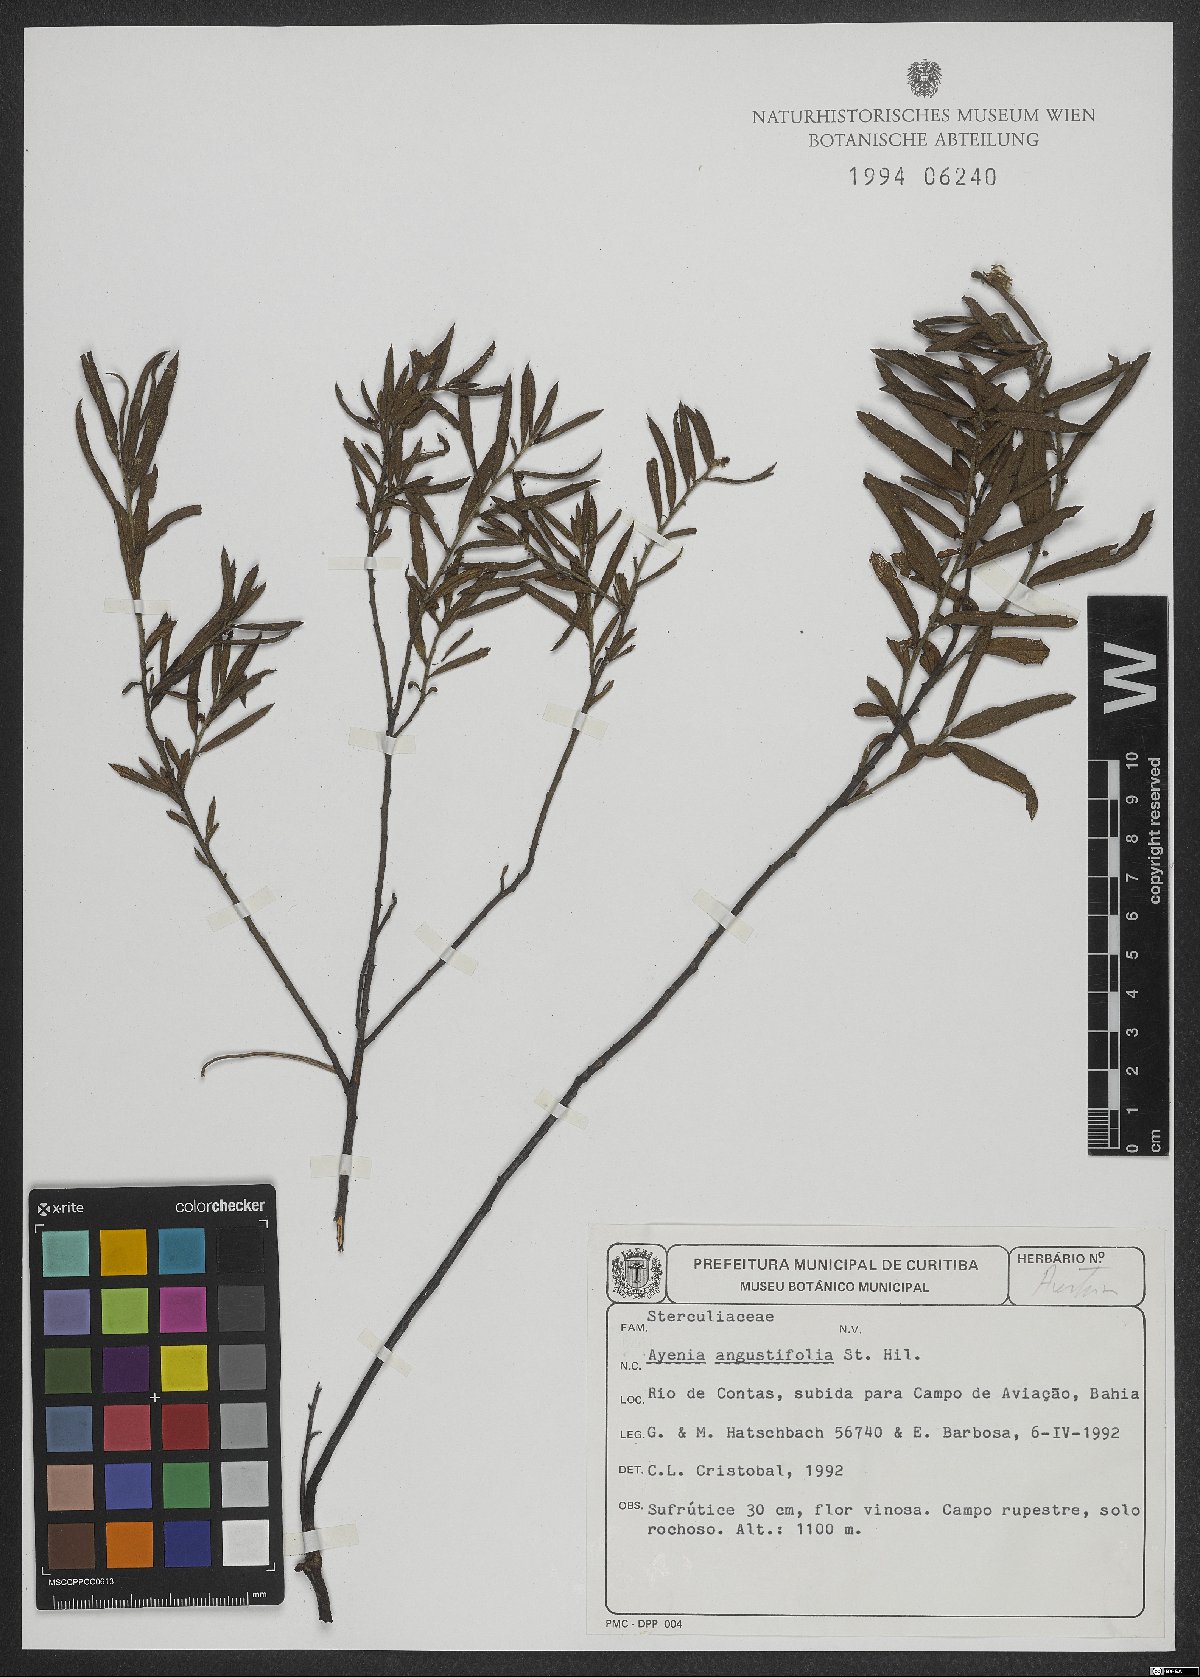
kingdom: Plantae
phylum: Tracheophyta
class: Magnoliopsida
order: Malvales
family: Malvaceae
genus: Ayenia
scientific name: Ayenia angustifolia
